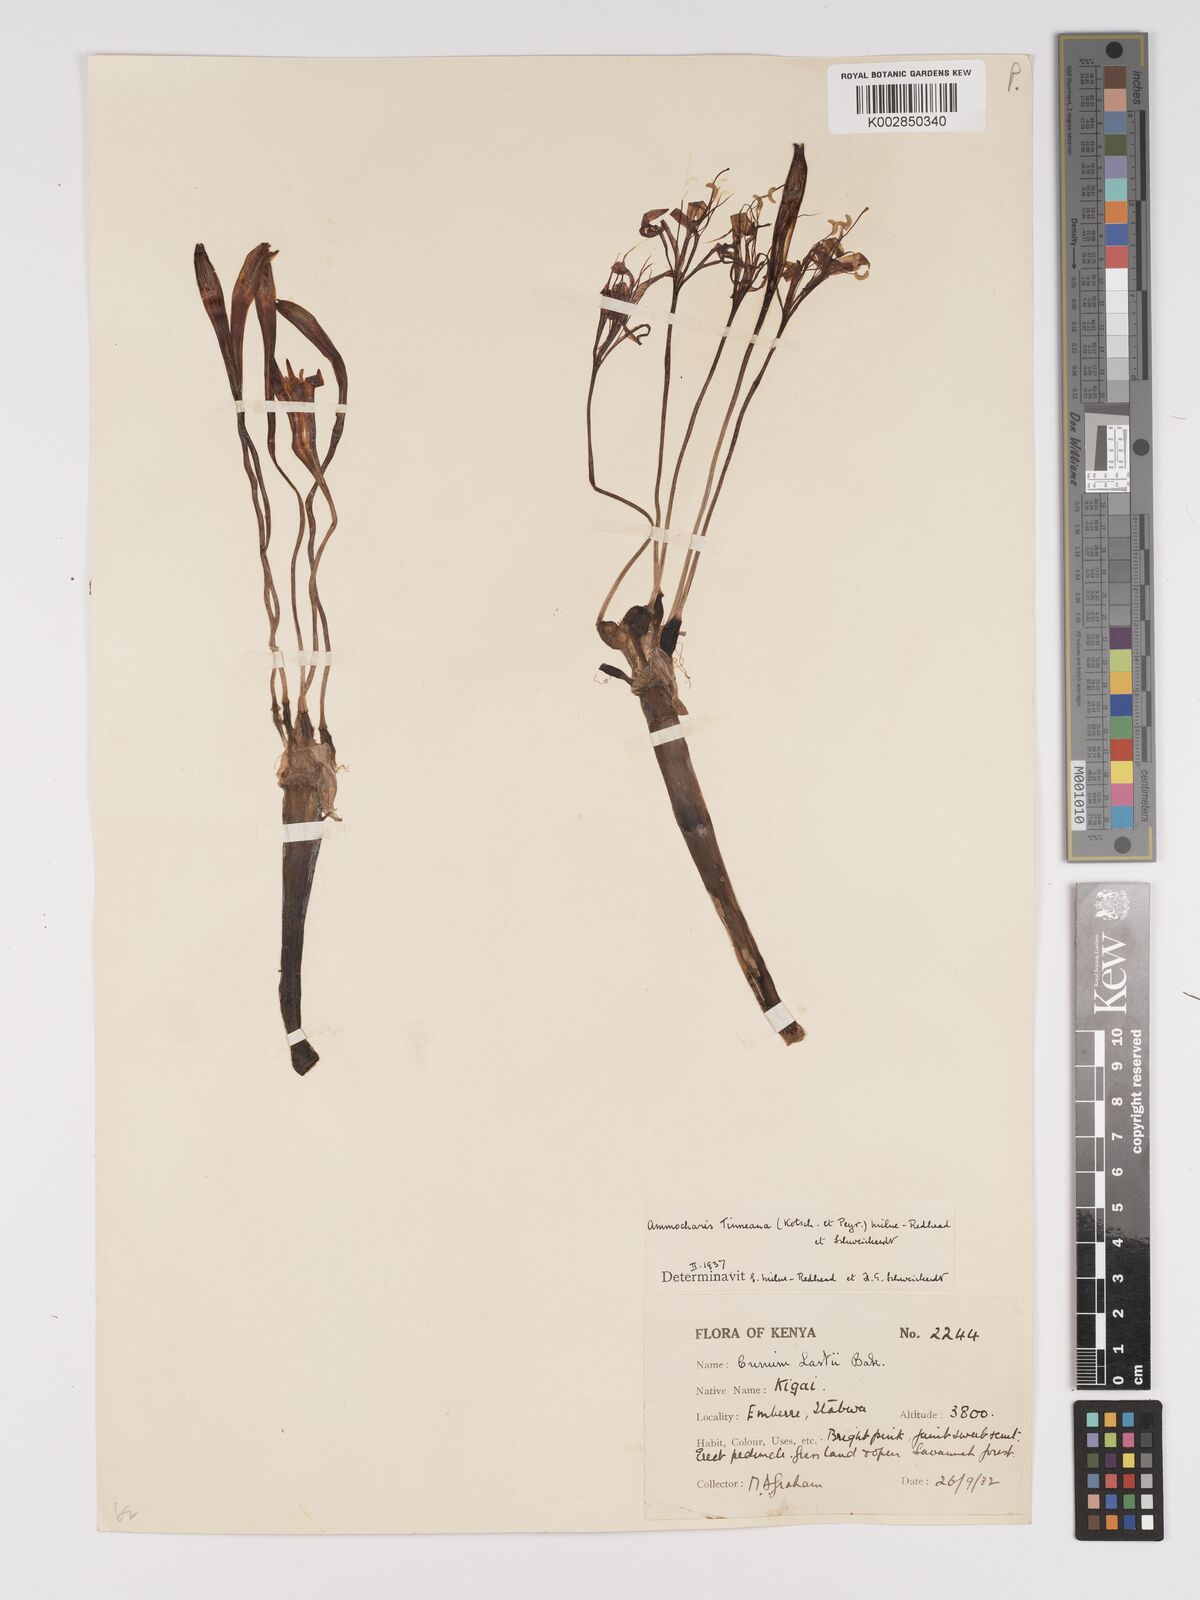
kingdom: Plantae
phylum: Tracheophyta
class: Liliopsida
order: Asparagales
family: Amaryllidaceae
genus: Ammocharis
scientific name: Ammocharis tinneana
